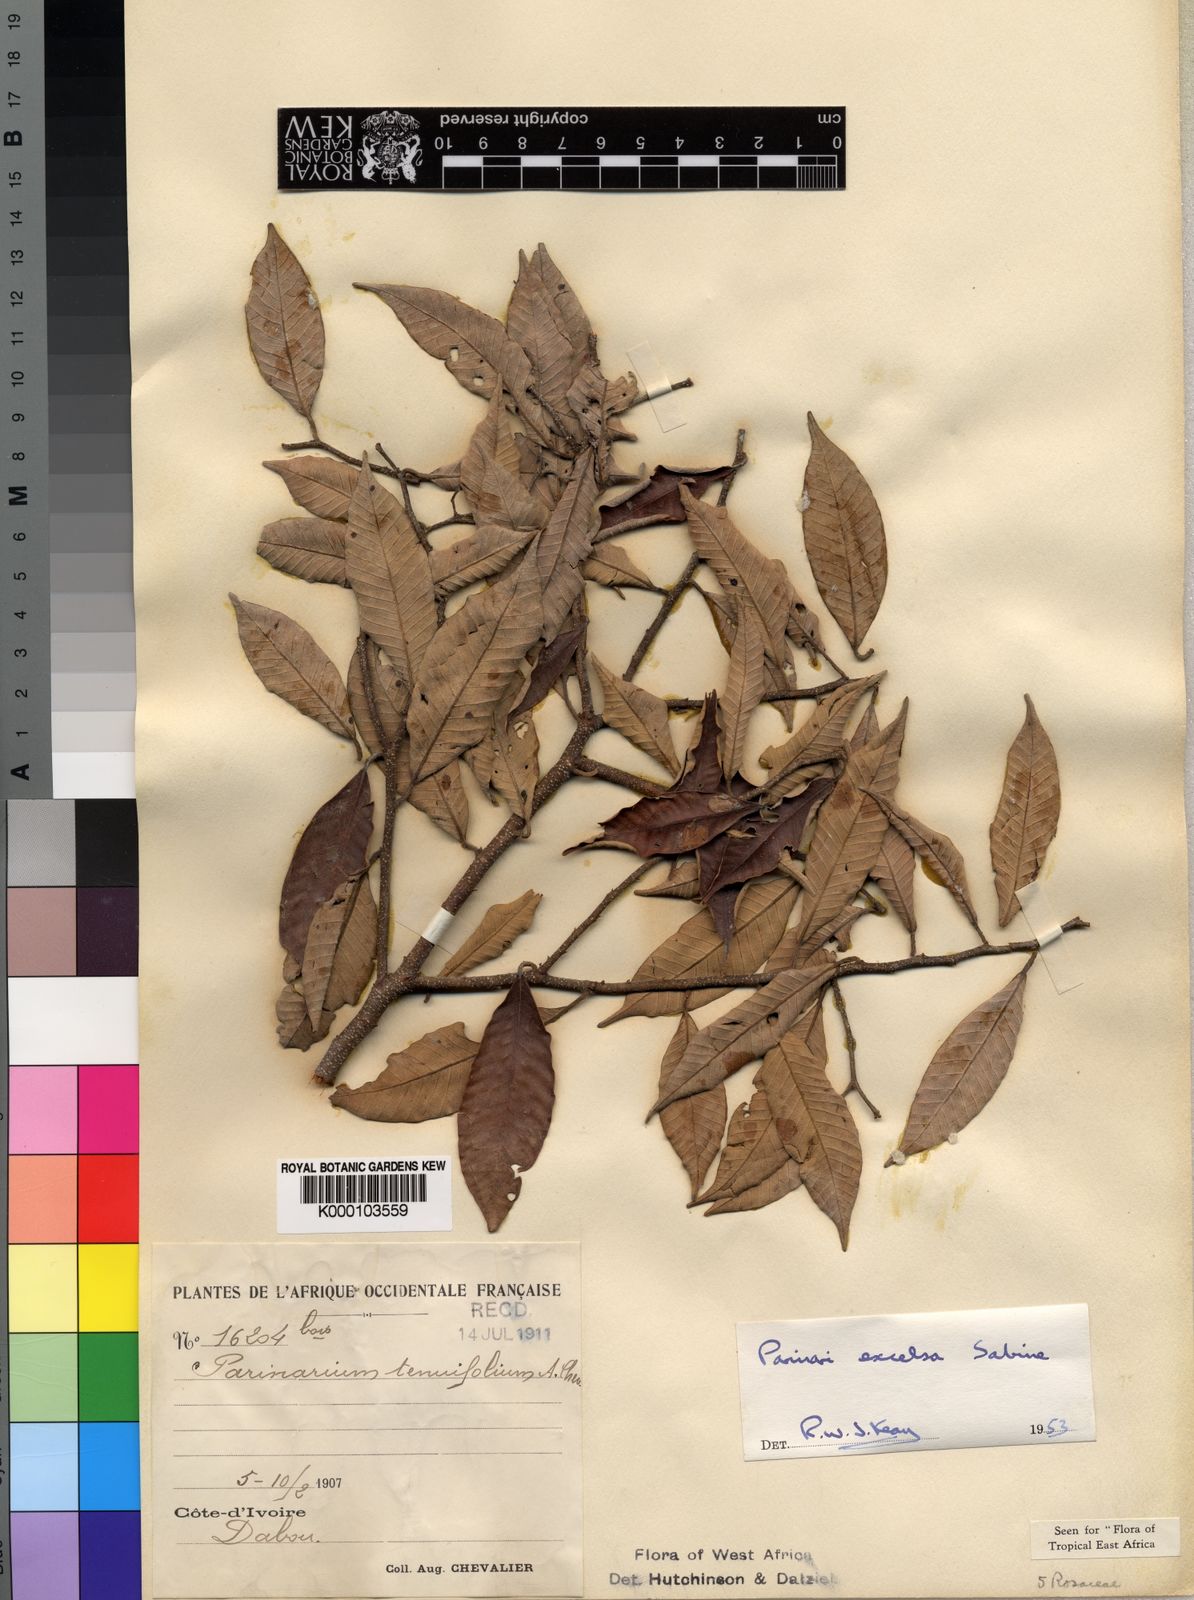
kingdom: Plantae
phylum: Tracheophyta
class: Magnoliopsida
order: Malpighiales
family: Chrysobalanaceae
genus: Parinari
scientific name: Parinari excelsa
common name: Guinea-plum
